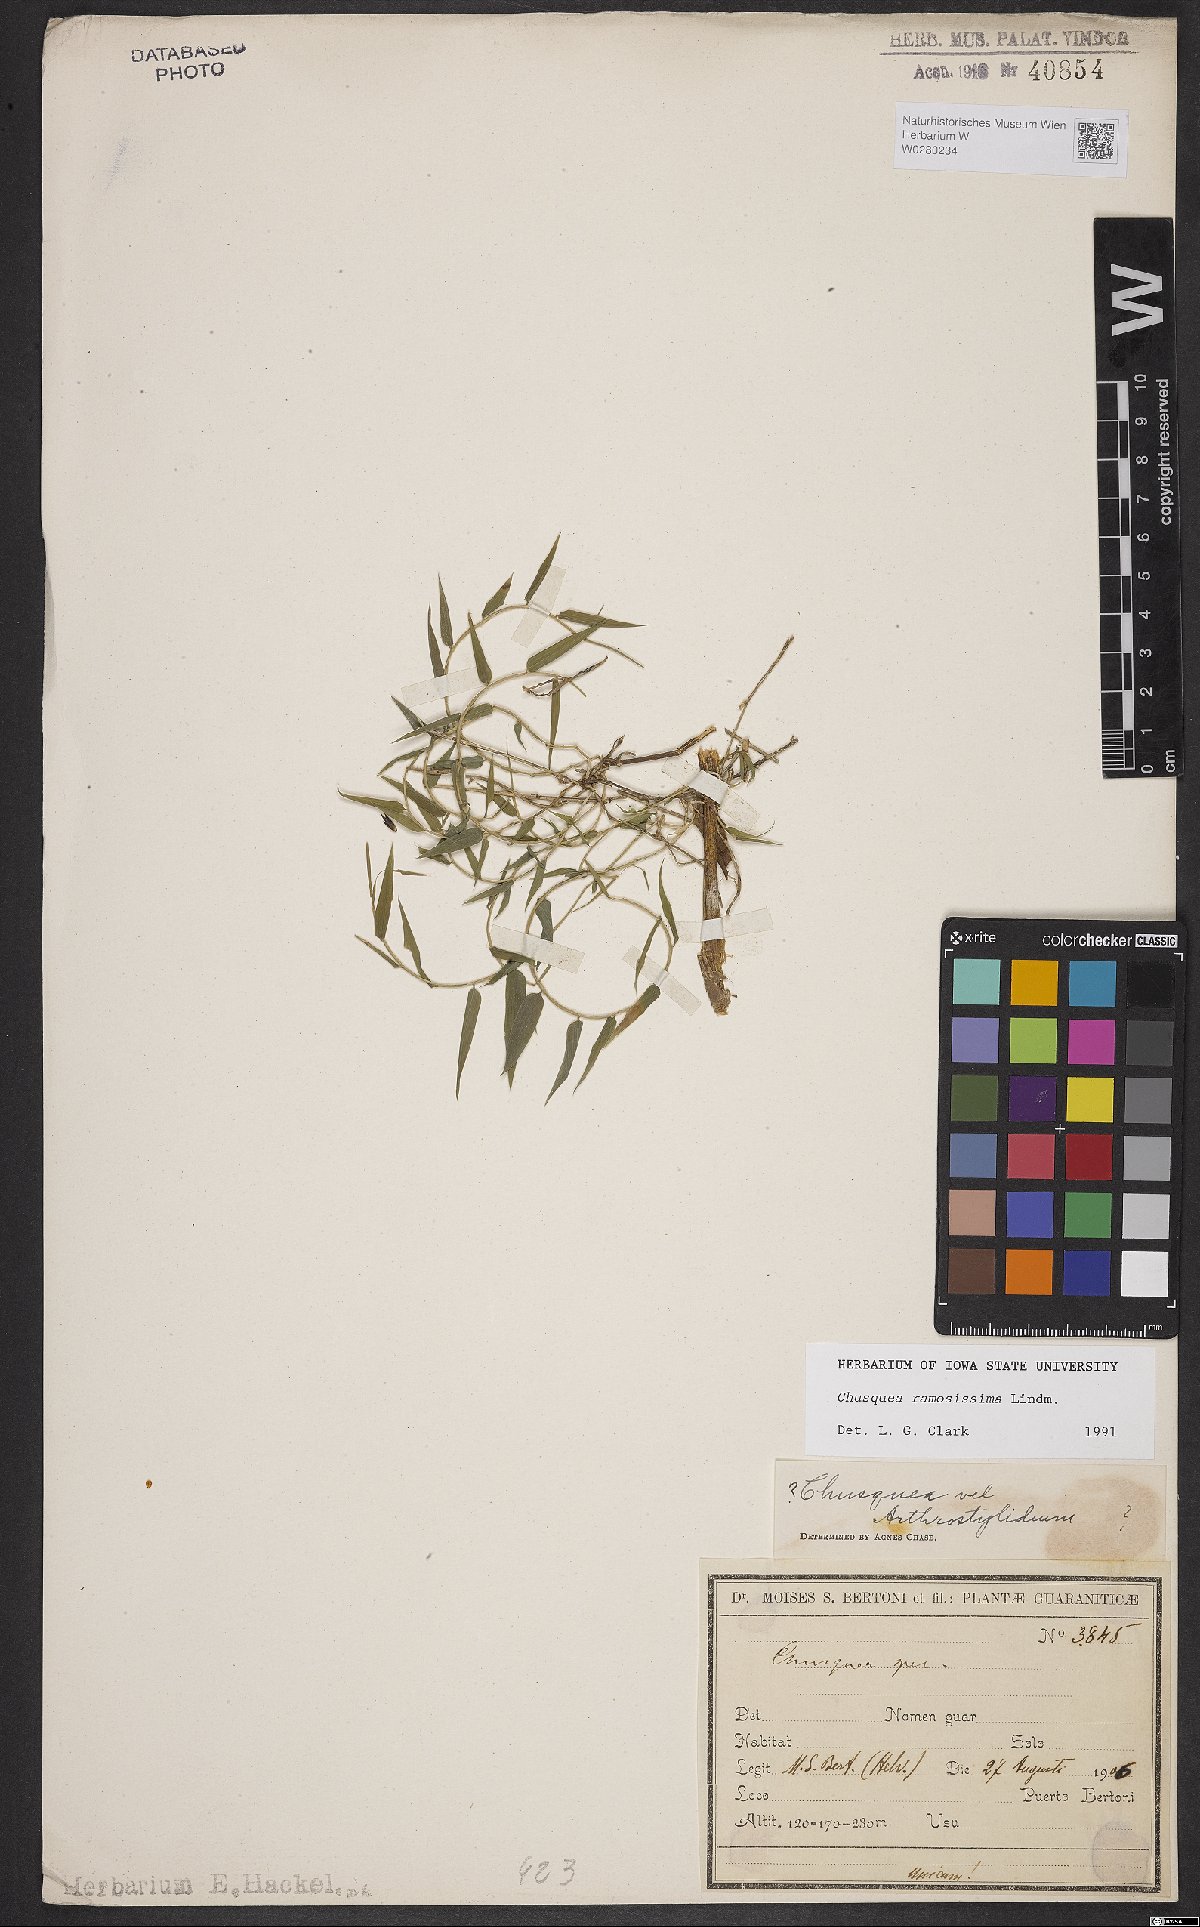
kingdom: Plantae
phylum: Tracheophyta
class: Liliopsida
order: Poales
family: Poaceae
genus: Chusquea
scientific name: Chusquea ramosissima
